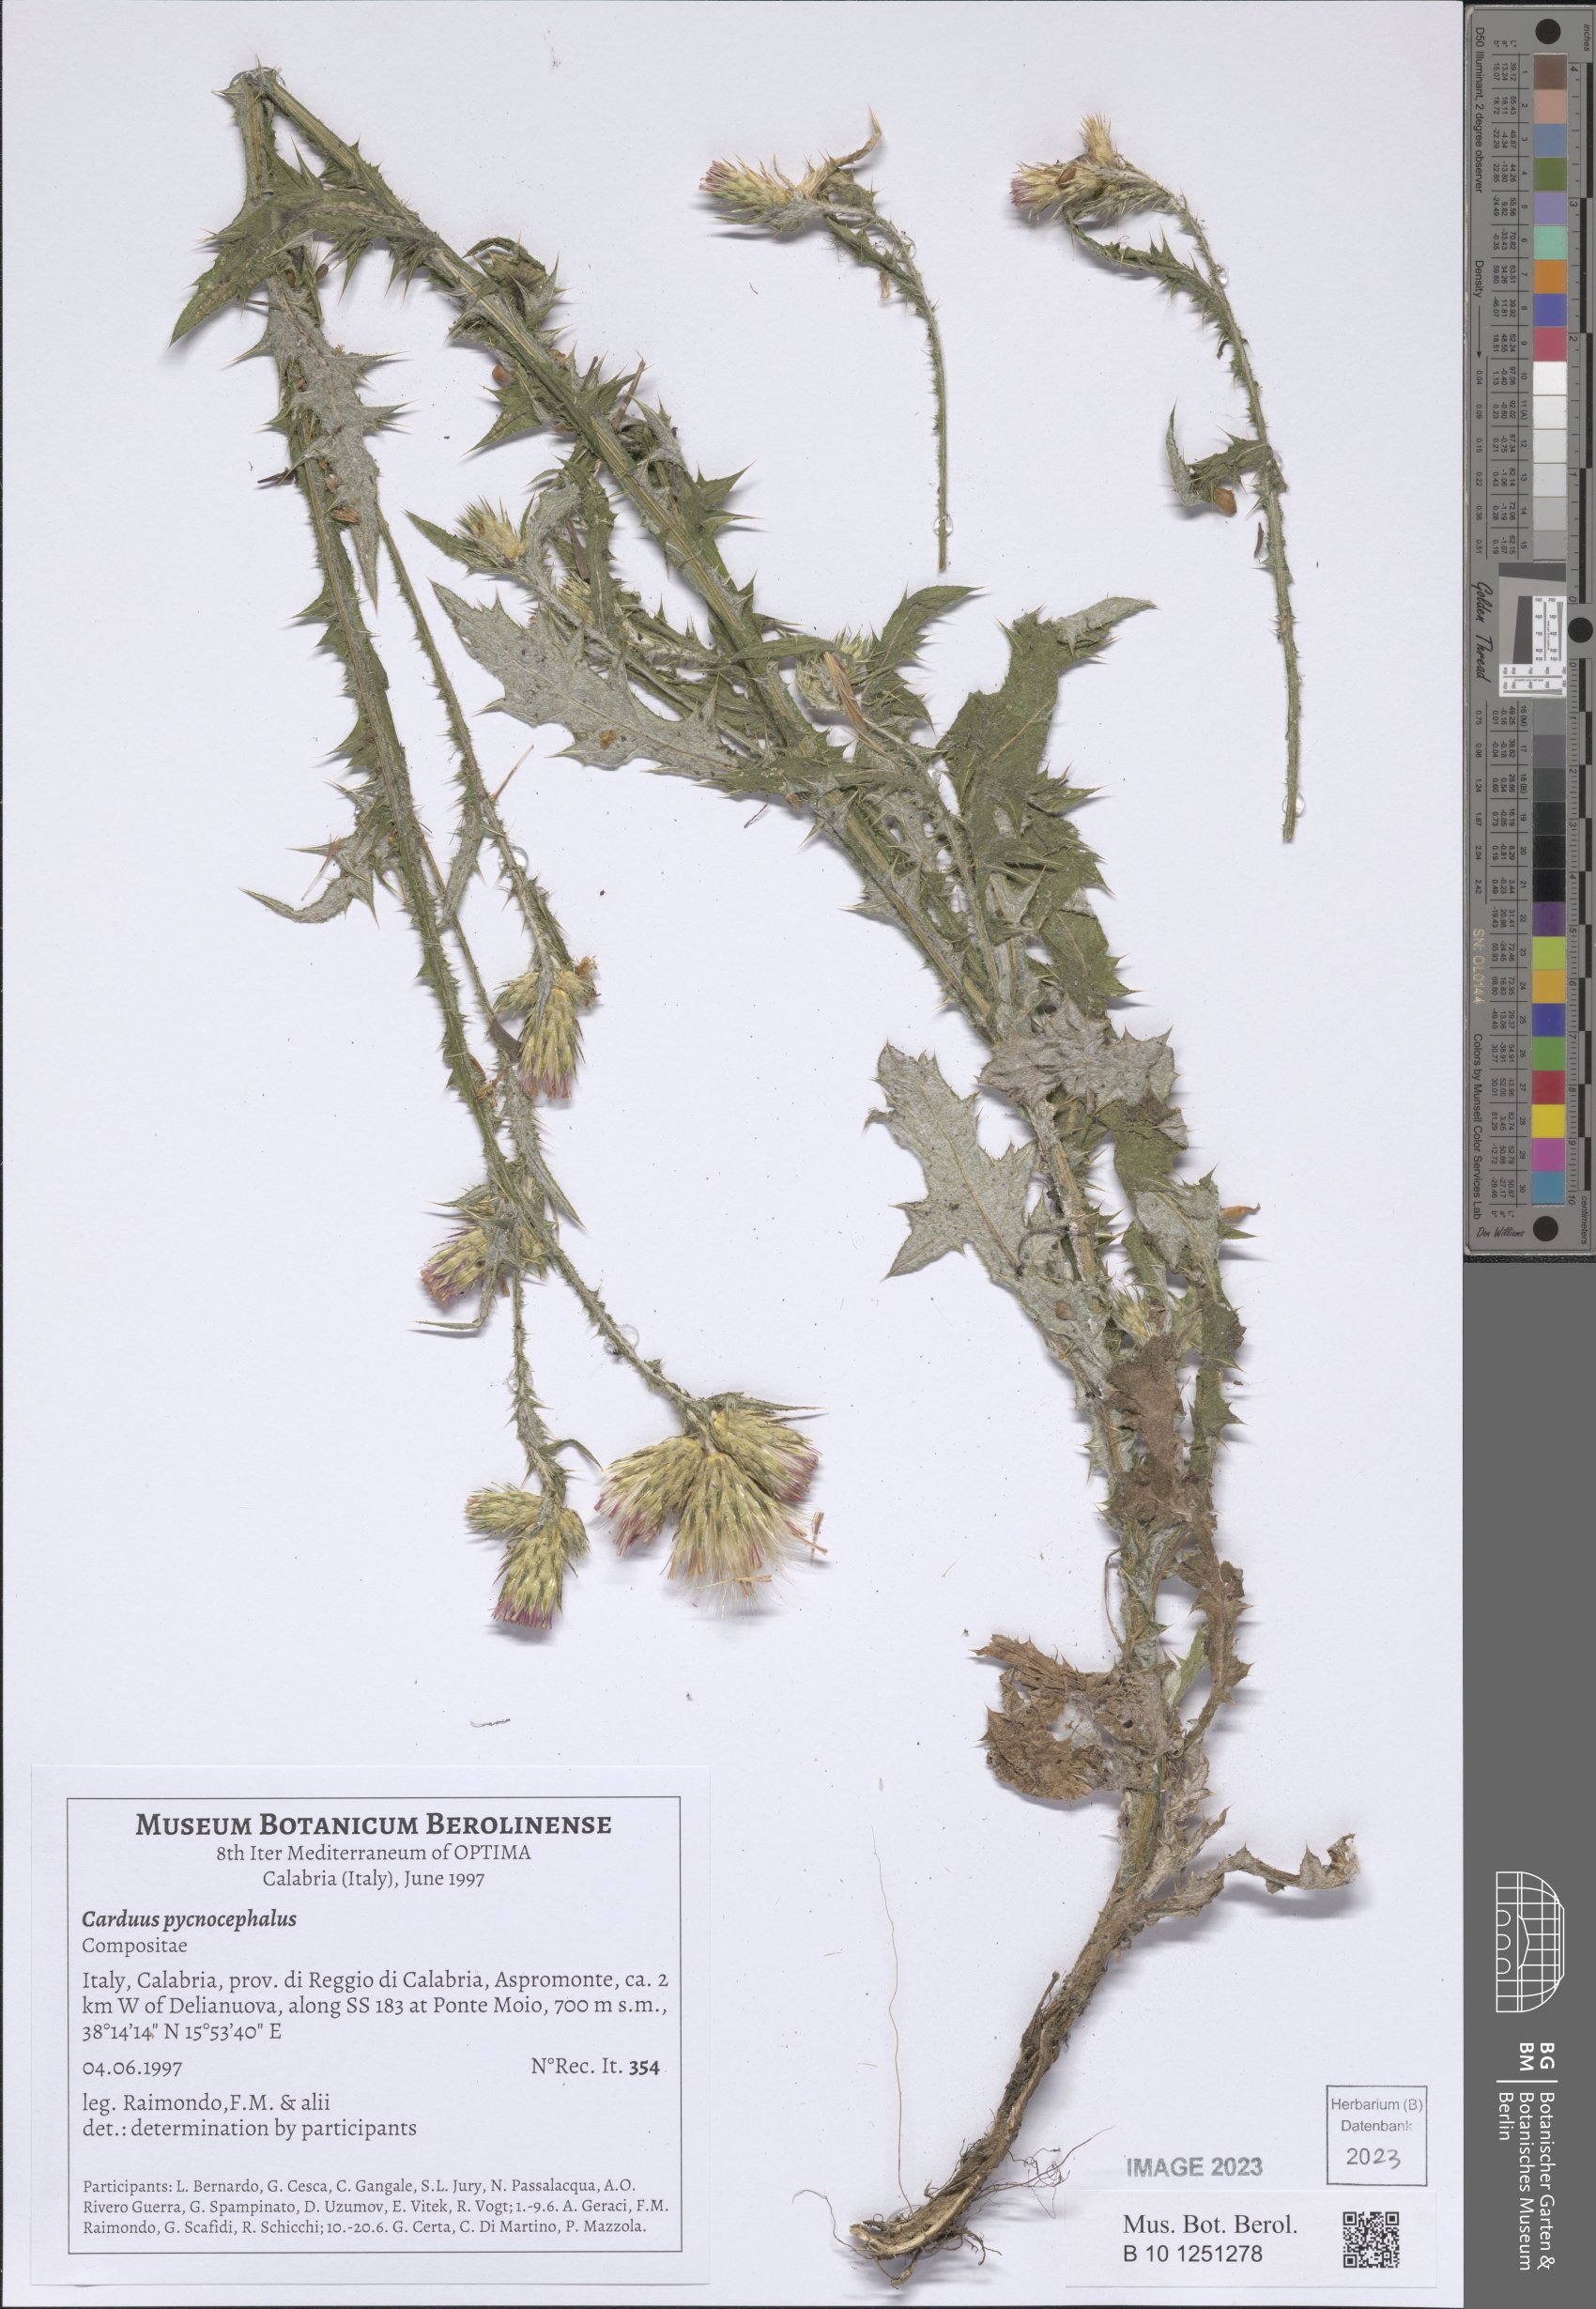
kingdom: Plantae
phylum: Tracheophyta
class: Magnoliopsida
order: Asterales
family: Asteraceae
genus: Carduus
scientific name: Carduus pycnocephalus
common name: Plymouth thistle
